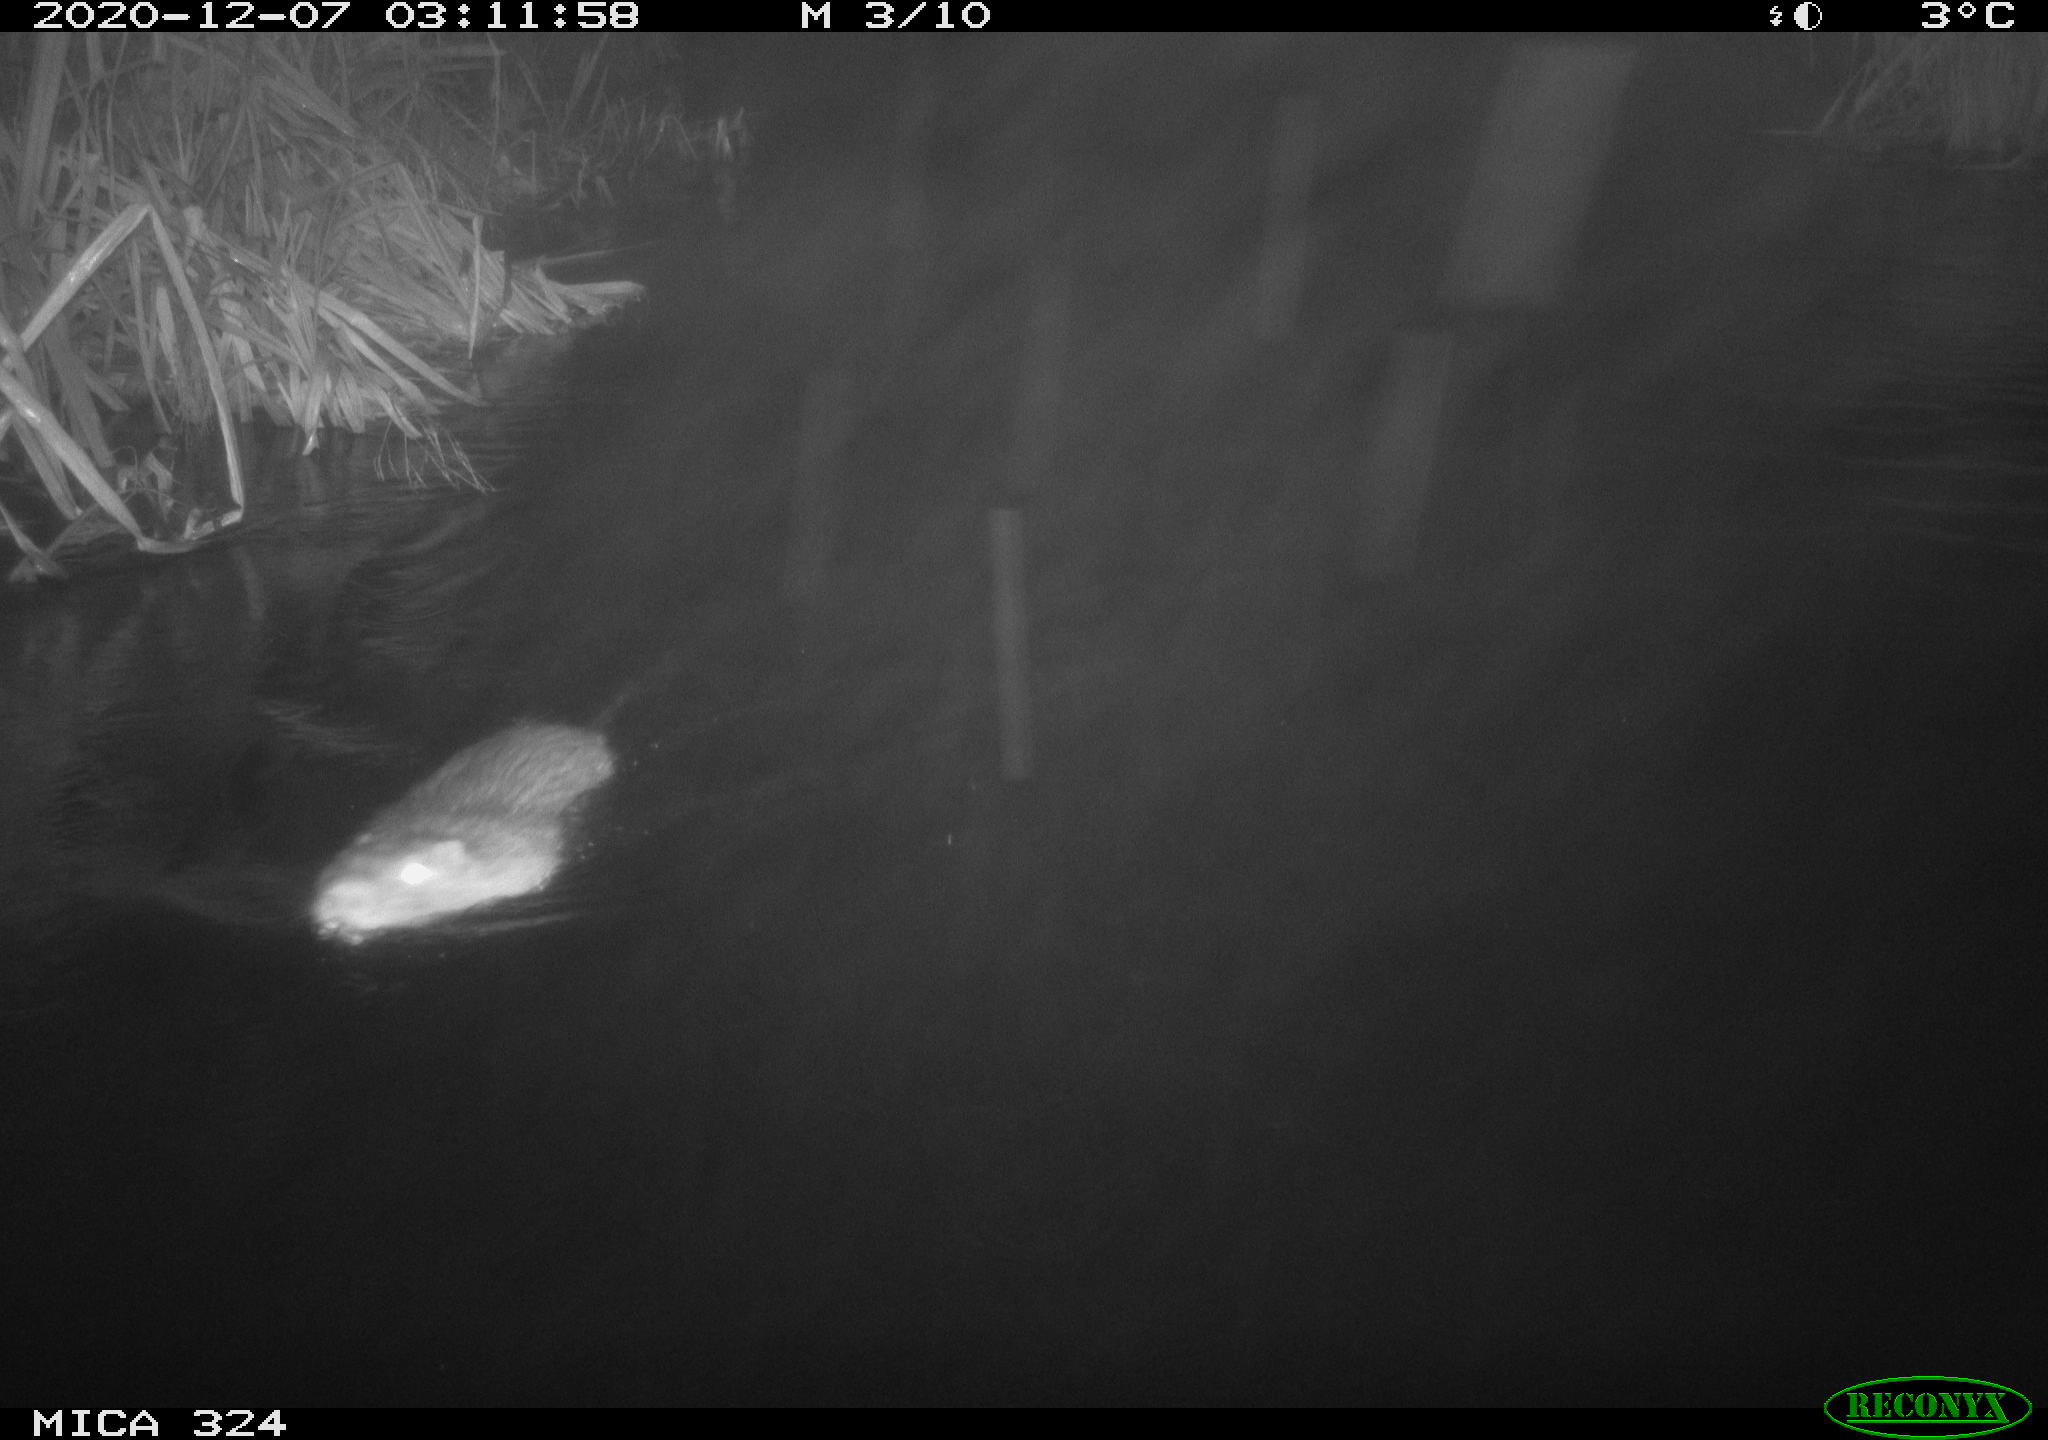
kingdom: Animalia
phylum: Chordata
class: Mammalia
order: Rodentia
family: Myocastoridae
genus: Myocastor
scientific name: Myocastor coypus
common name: Coypu
